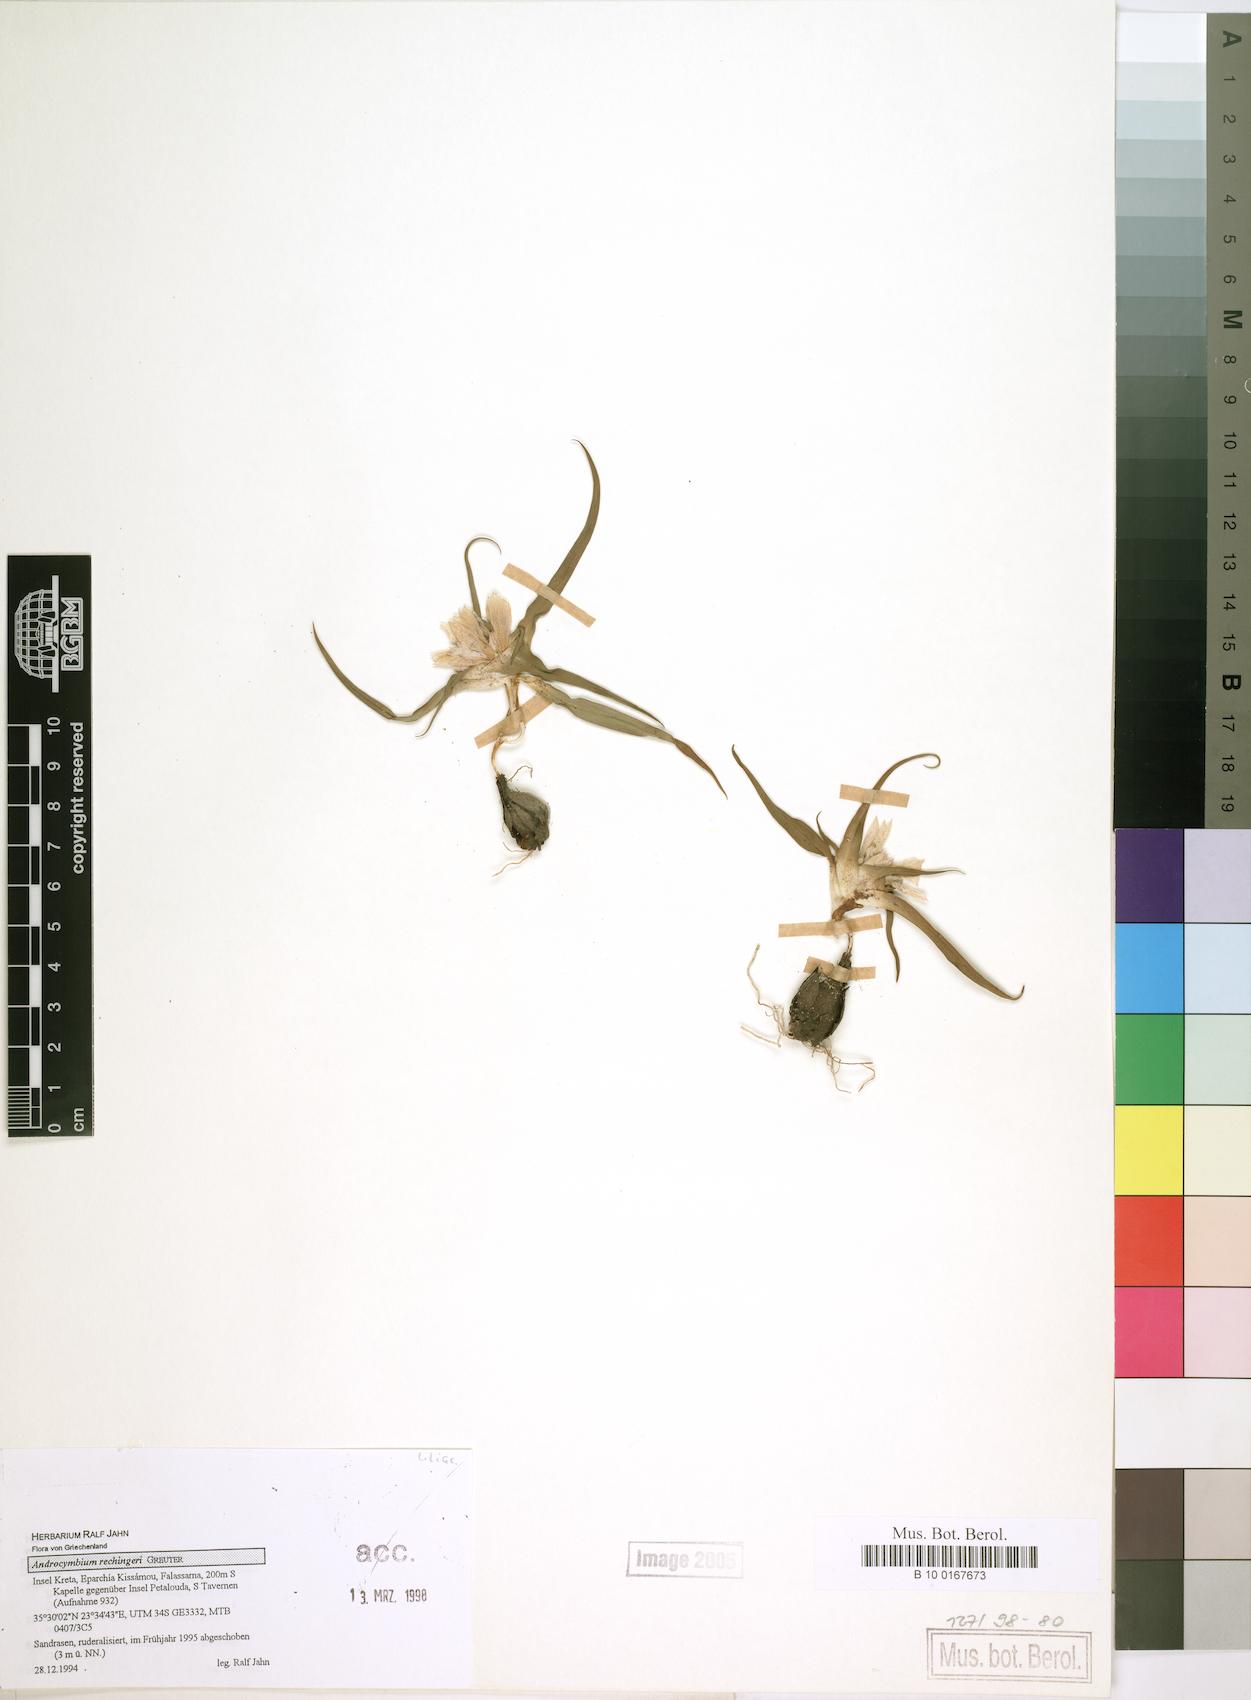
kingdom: Plantae
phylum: Tracheophyta
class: Liliopsida
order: Liliales
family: Colchicaceae
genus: Colchicum
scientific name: Colchicum rechingeri
